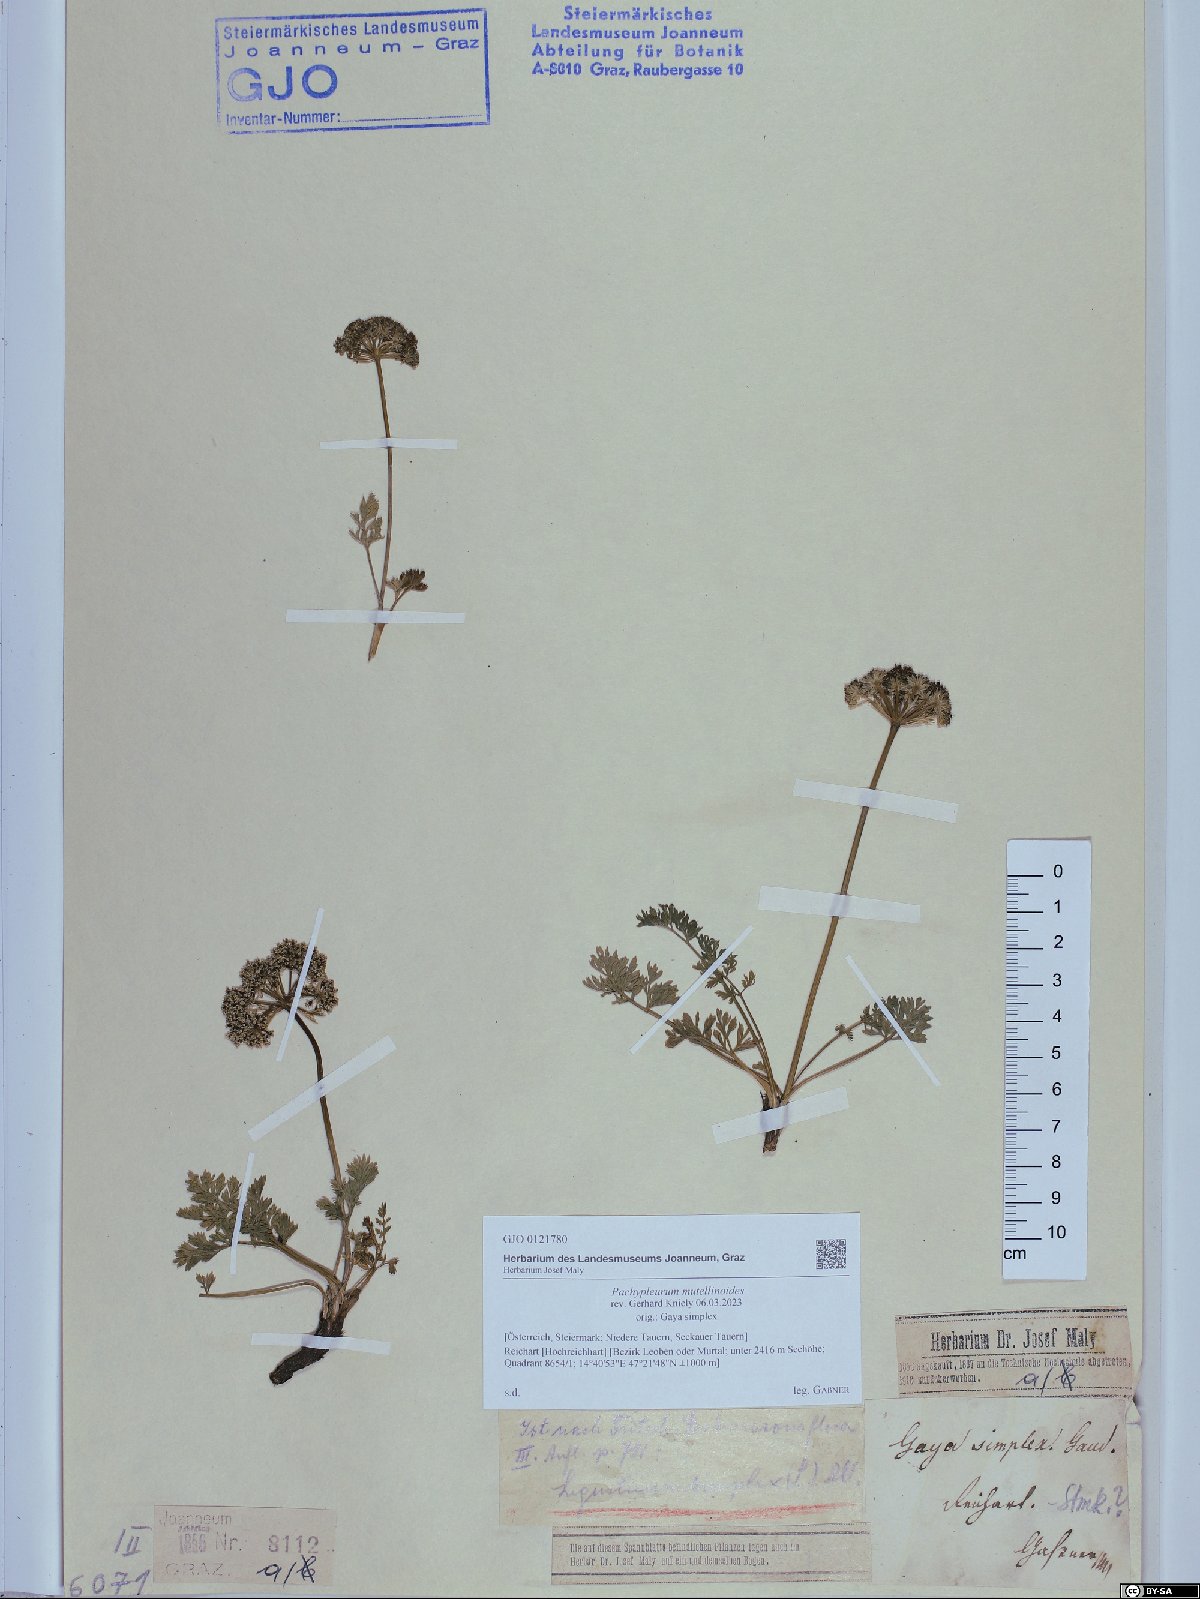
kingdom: Plantae
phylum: Tracheophyta
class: Magnoliopsida
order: Apiales
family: Apiaceae
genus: Pachypleurum
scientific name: Pachypleurum mutellinoides
